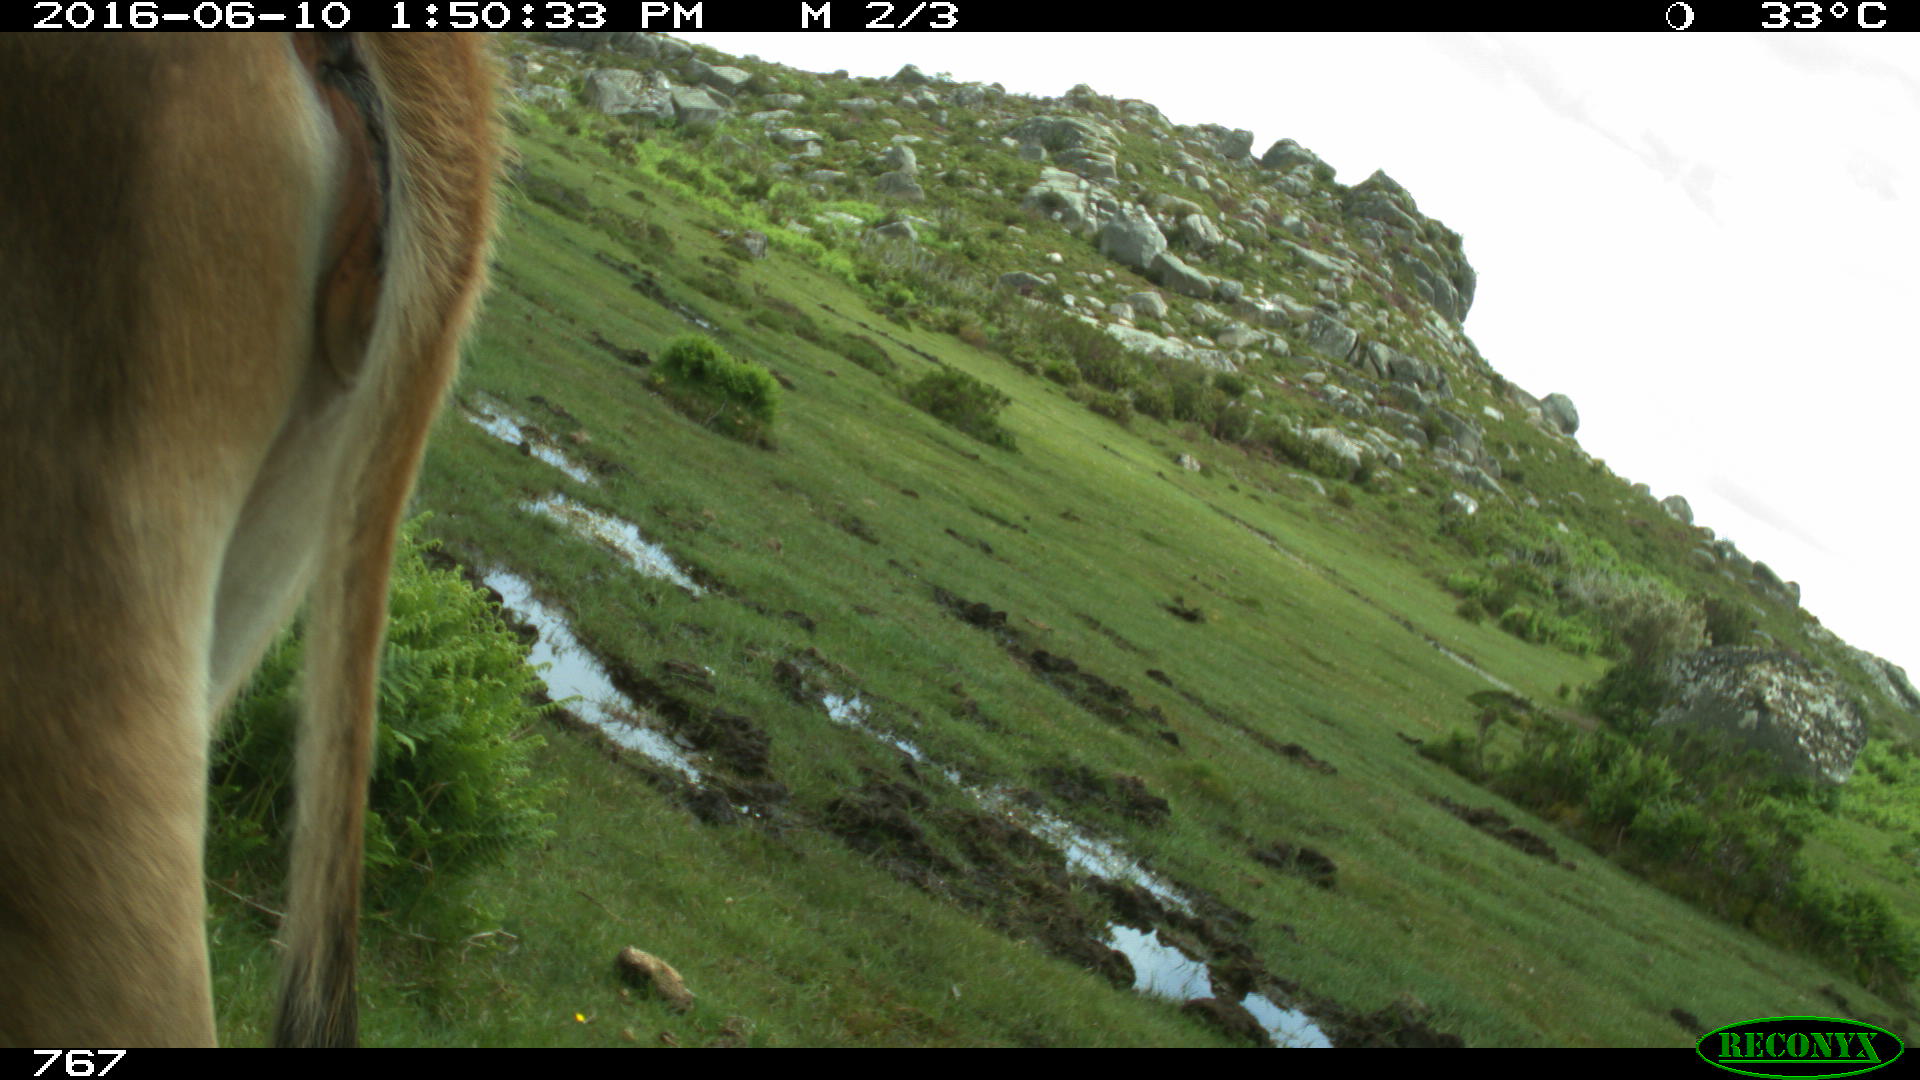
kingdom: Animalia
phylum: Chordata
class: Mammalia
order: Artiodactyla
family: Bovidae
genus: Bos
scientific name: Bos taurus
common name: Domesticated cattle
